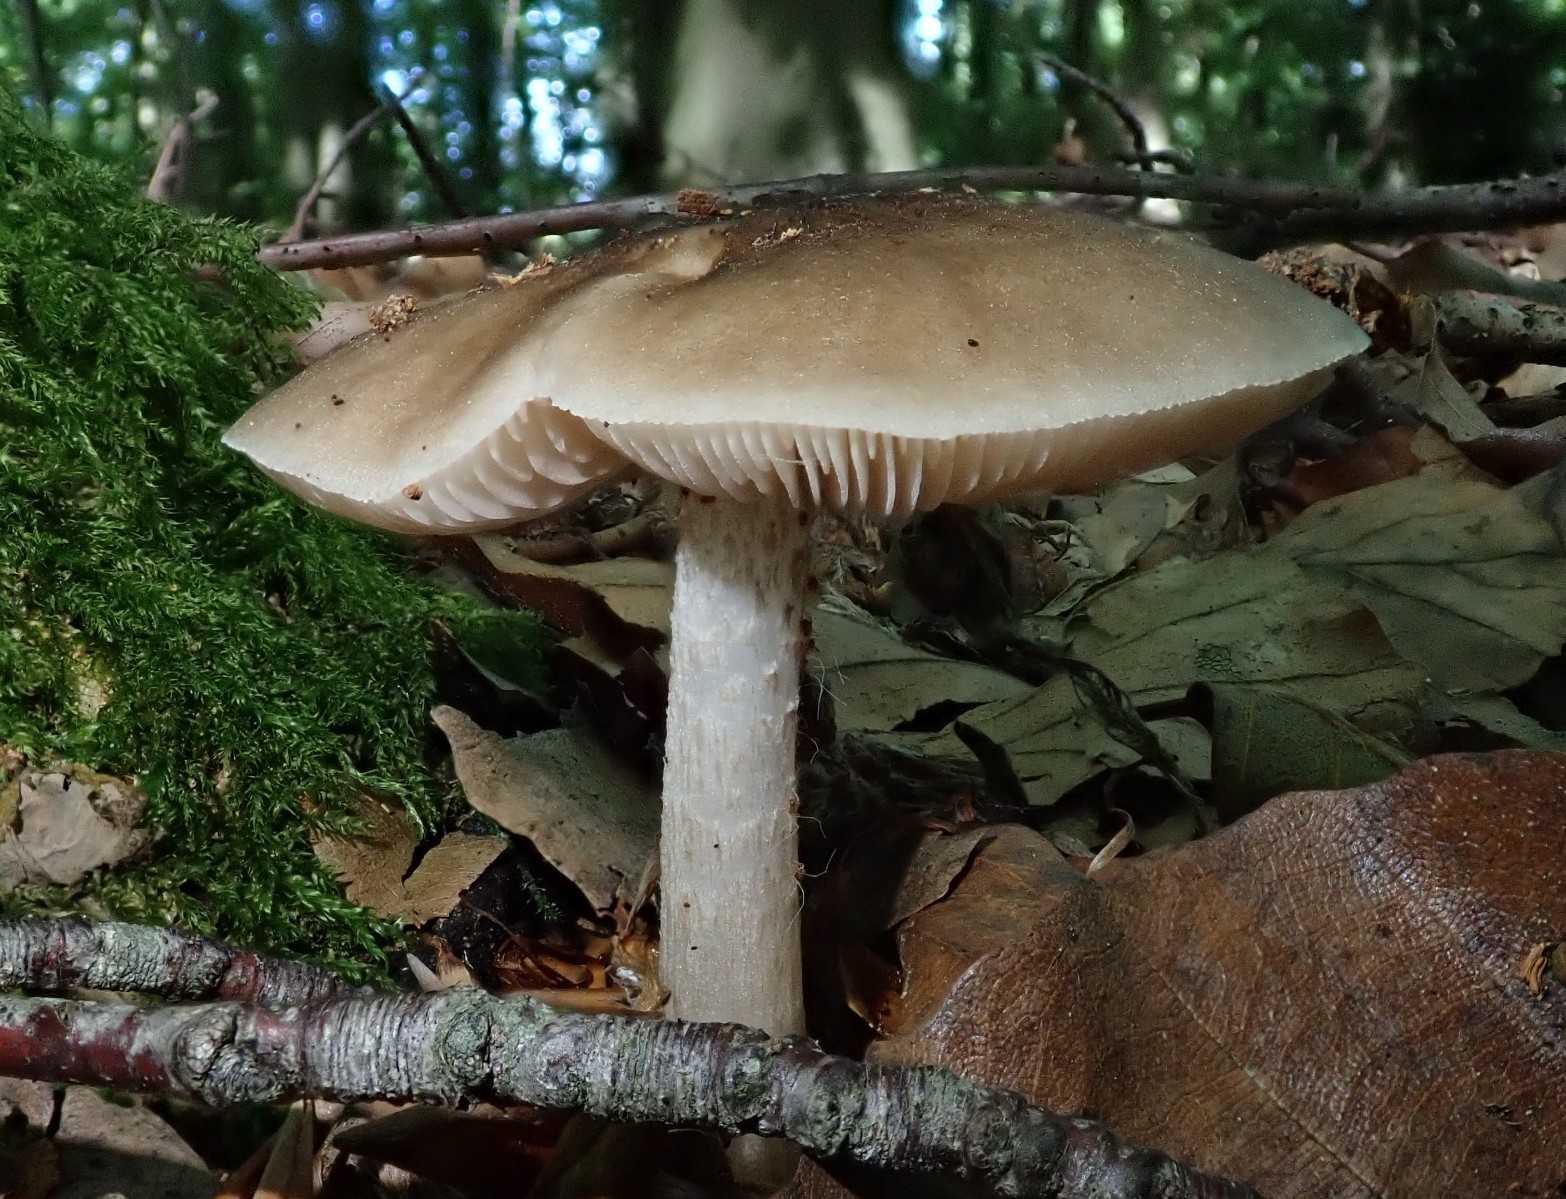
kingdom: Fungi
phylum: Basidiomycota
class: Agaricomycetes
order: Agaricales
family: Pluteaceae
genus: Pluteus
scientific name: Pluteus cervinus
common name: sodfarvet skærmhat
